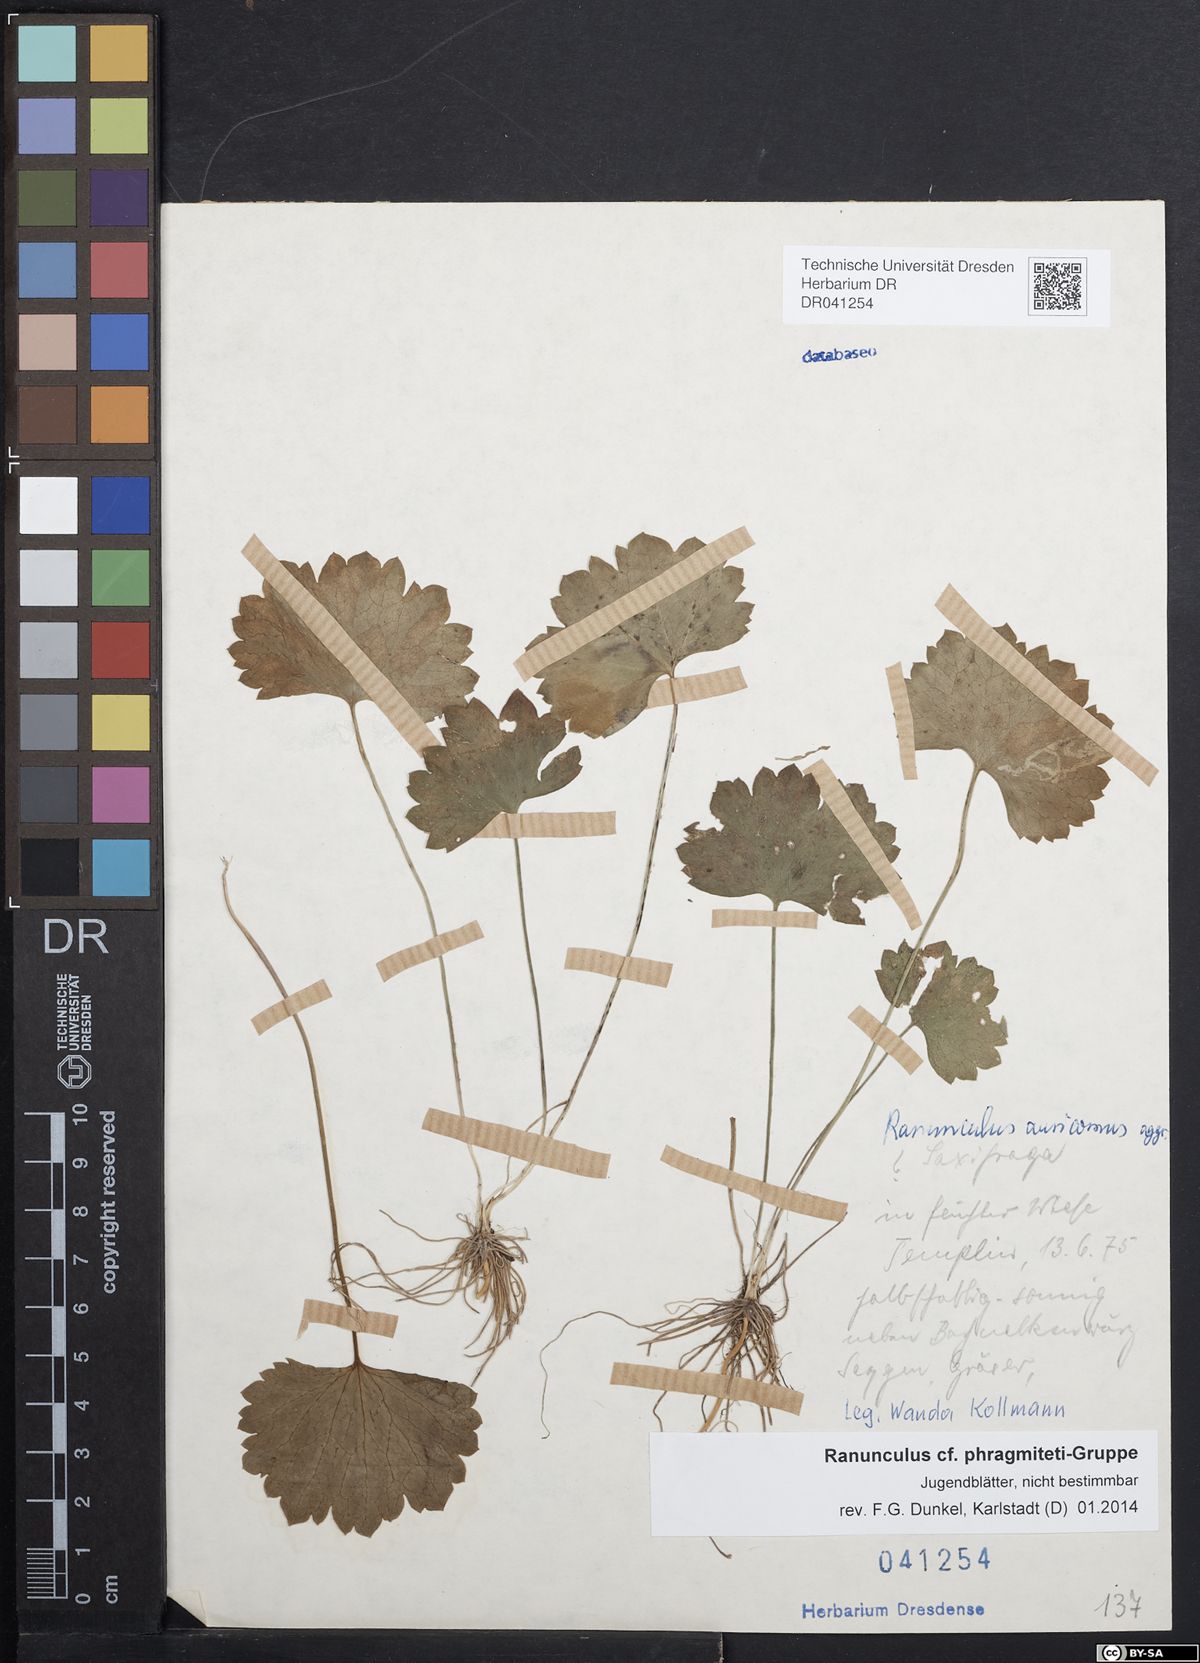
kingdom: Plantae
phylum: Tracheophyta
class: Magnoliopsida
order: Ranunculales
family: Ranunculaceae
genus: Ranunculus
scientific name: Ranunculus phragmiteti
